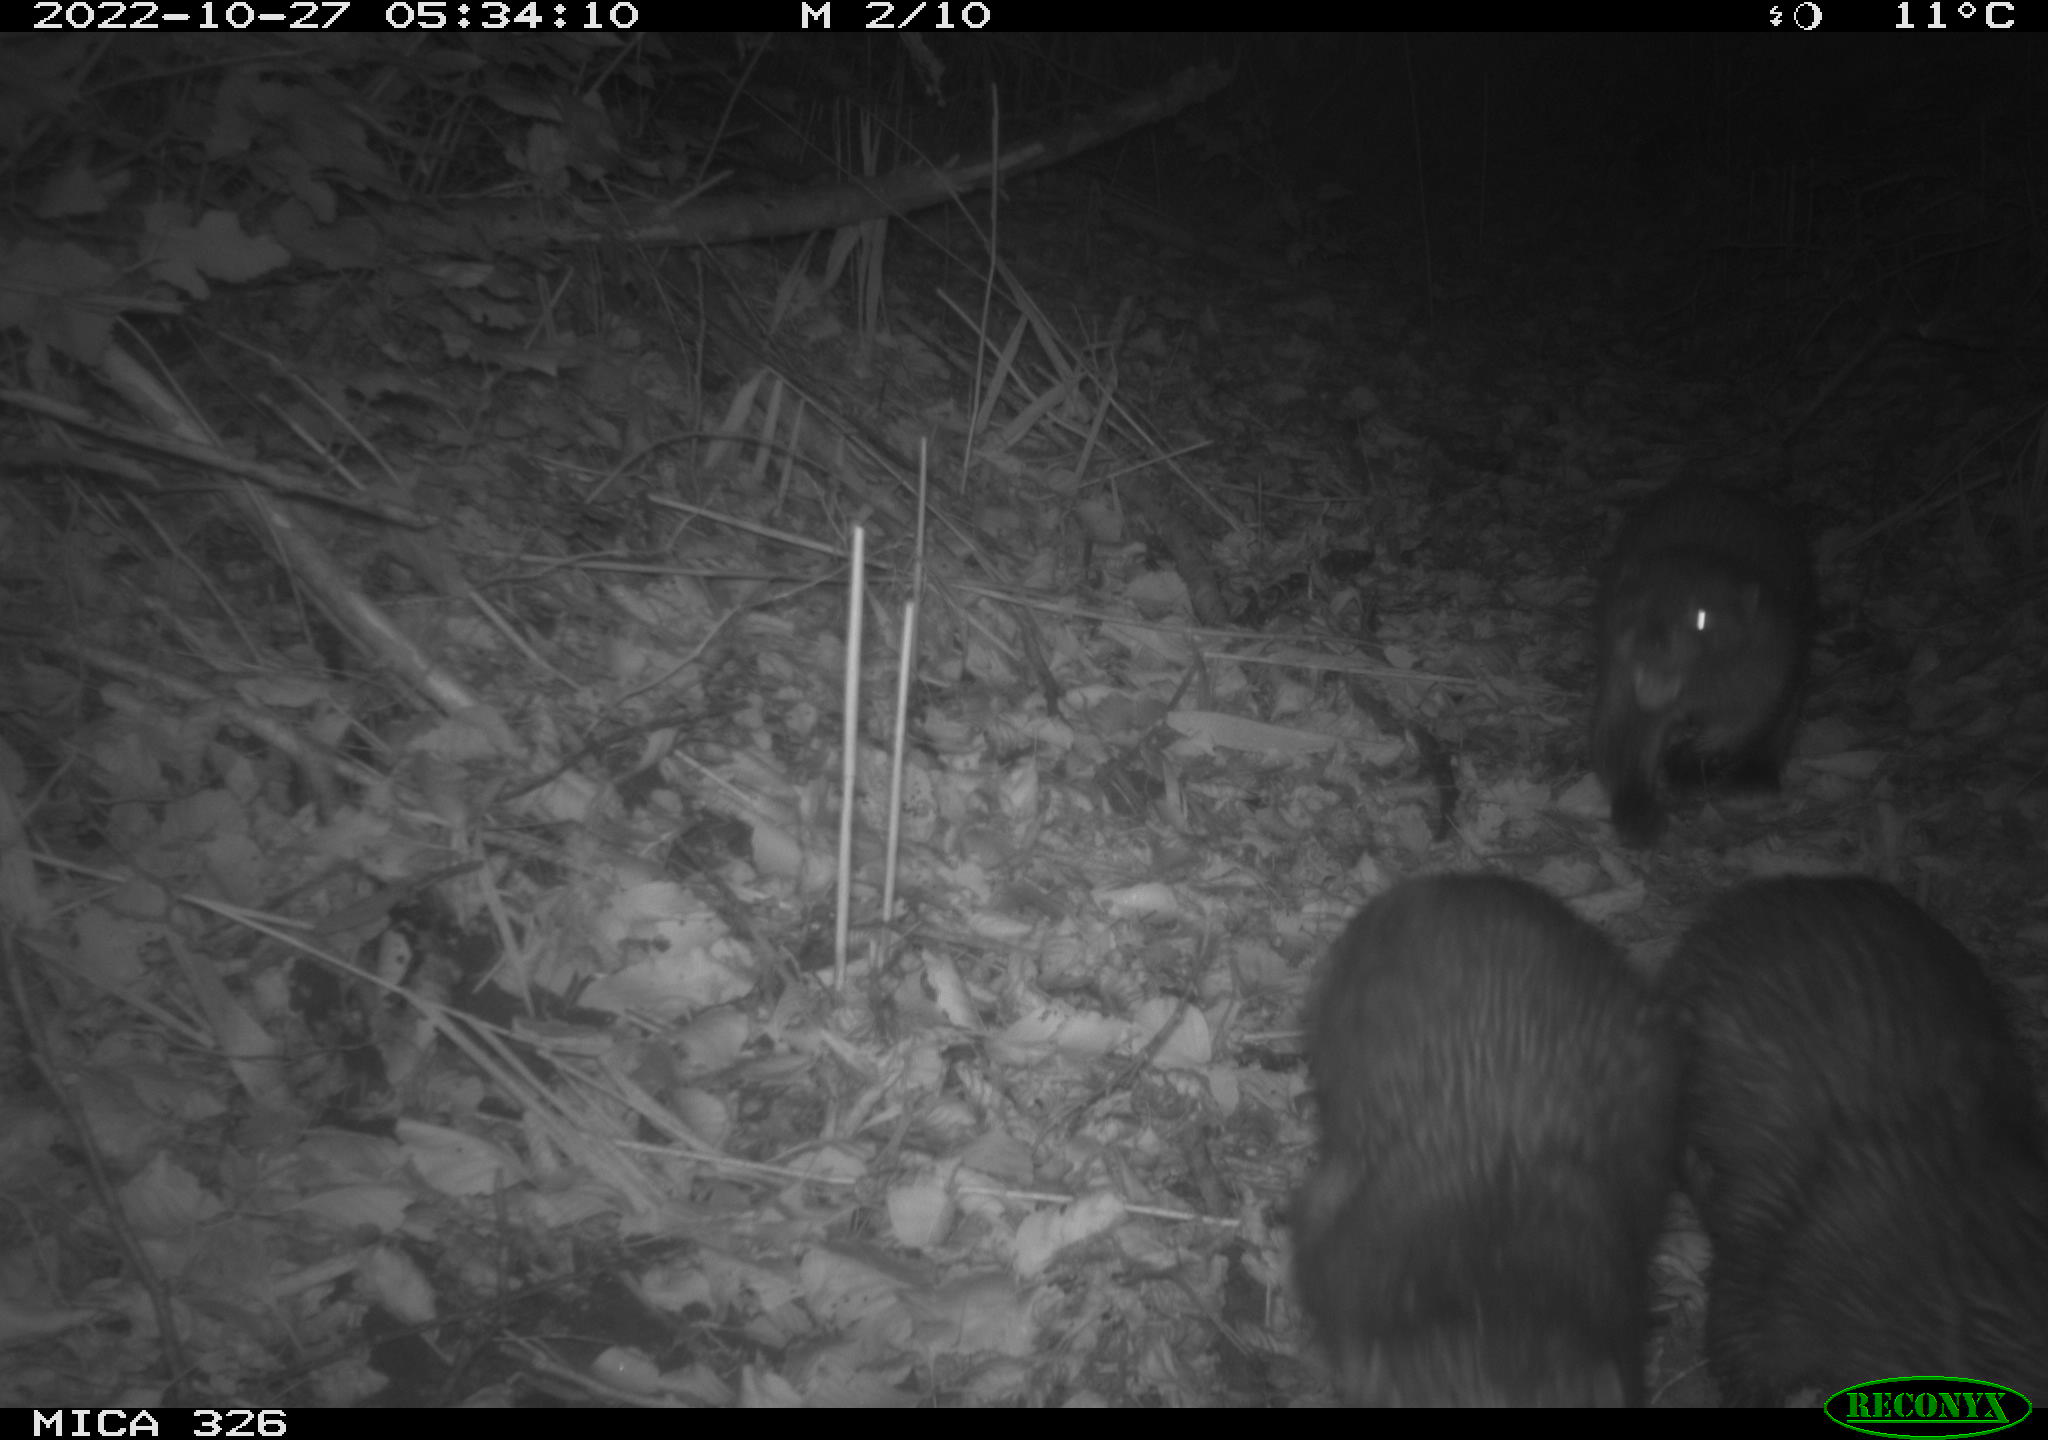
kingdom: Animalia
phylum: Chordata
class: Mammalia
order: Carnivora
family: Mustelidae
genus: Lutra
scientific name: Lutra lutra
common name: European otter
